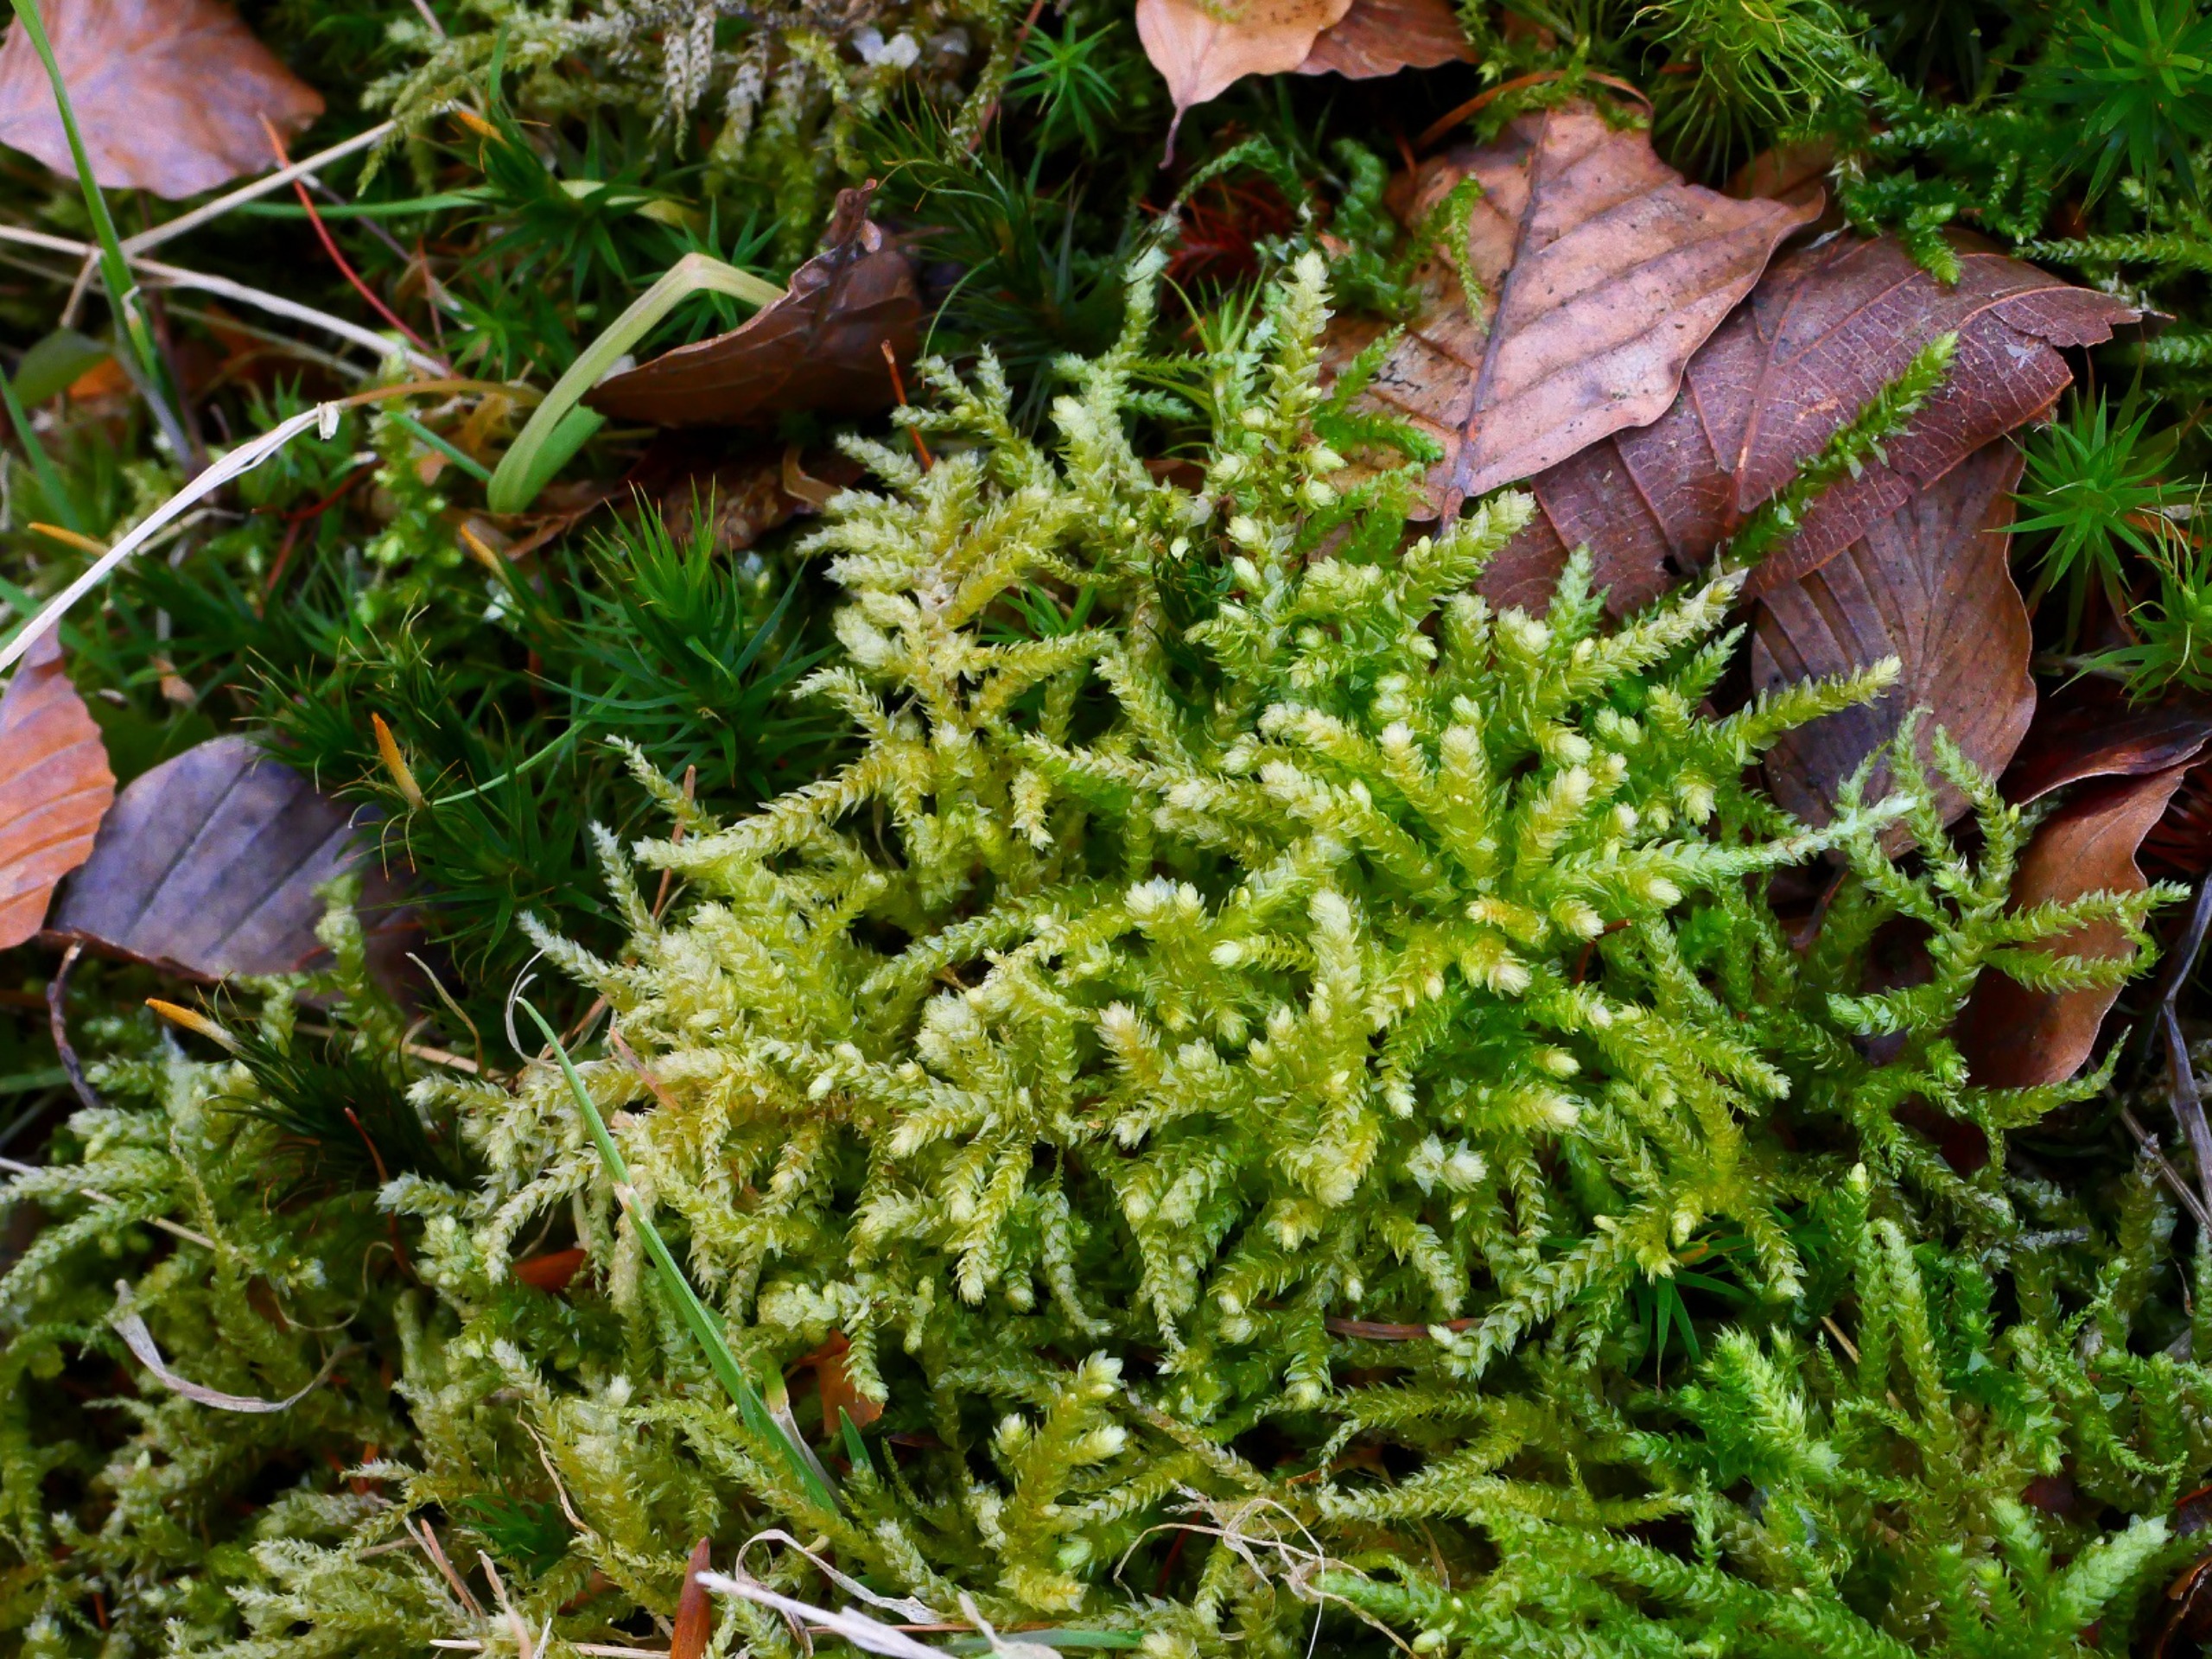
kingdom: Plantae
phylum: Bryophyta
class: Bryopsida
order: Hypnales
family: Brachytheciaceae
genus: Eurhynchium
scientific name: Eurhynchium angustirete
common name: Stor næbmos
